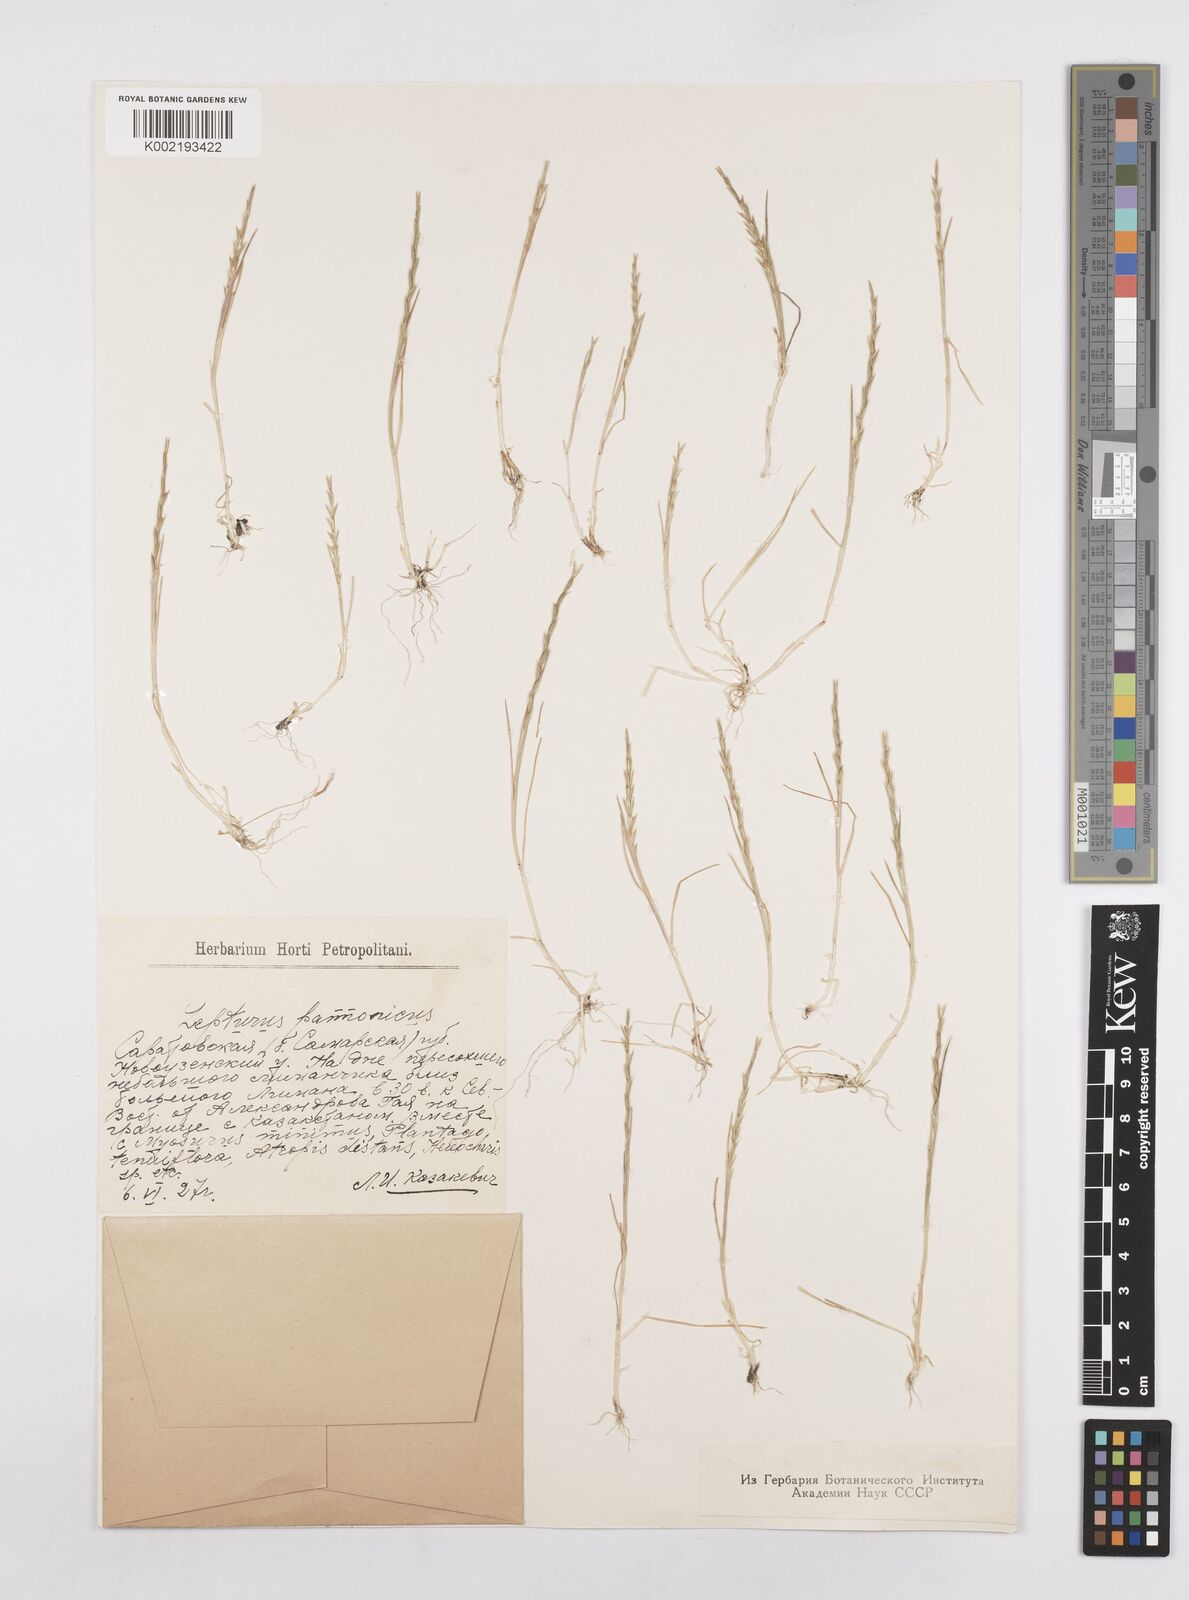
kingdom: Plantae
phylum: Tracheophyta
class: Liliopsida
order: Poales
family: Poaceae
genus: Pholiurus
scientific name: Pholiurus pannonicus
